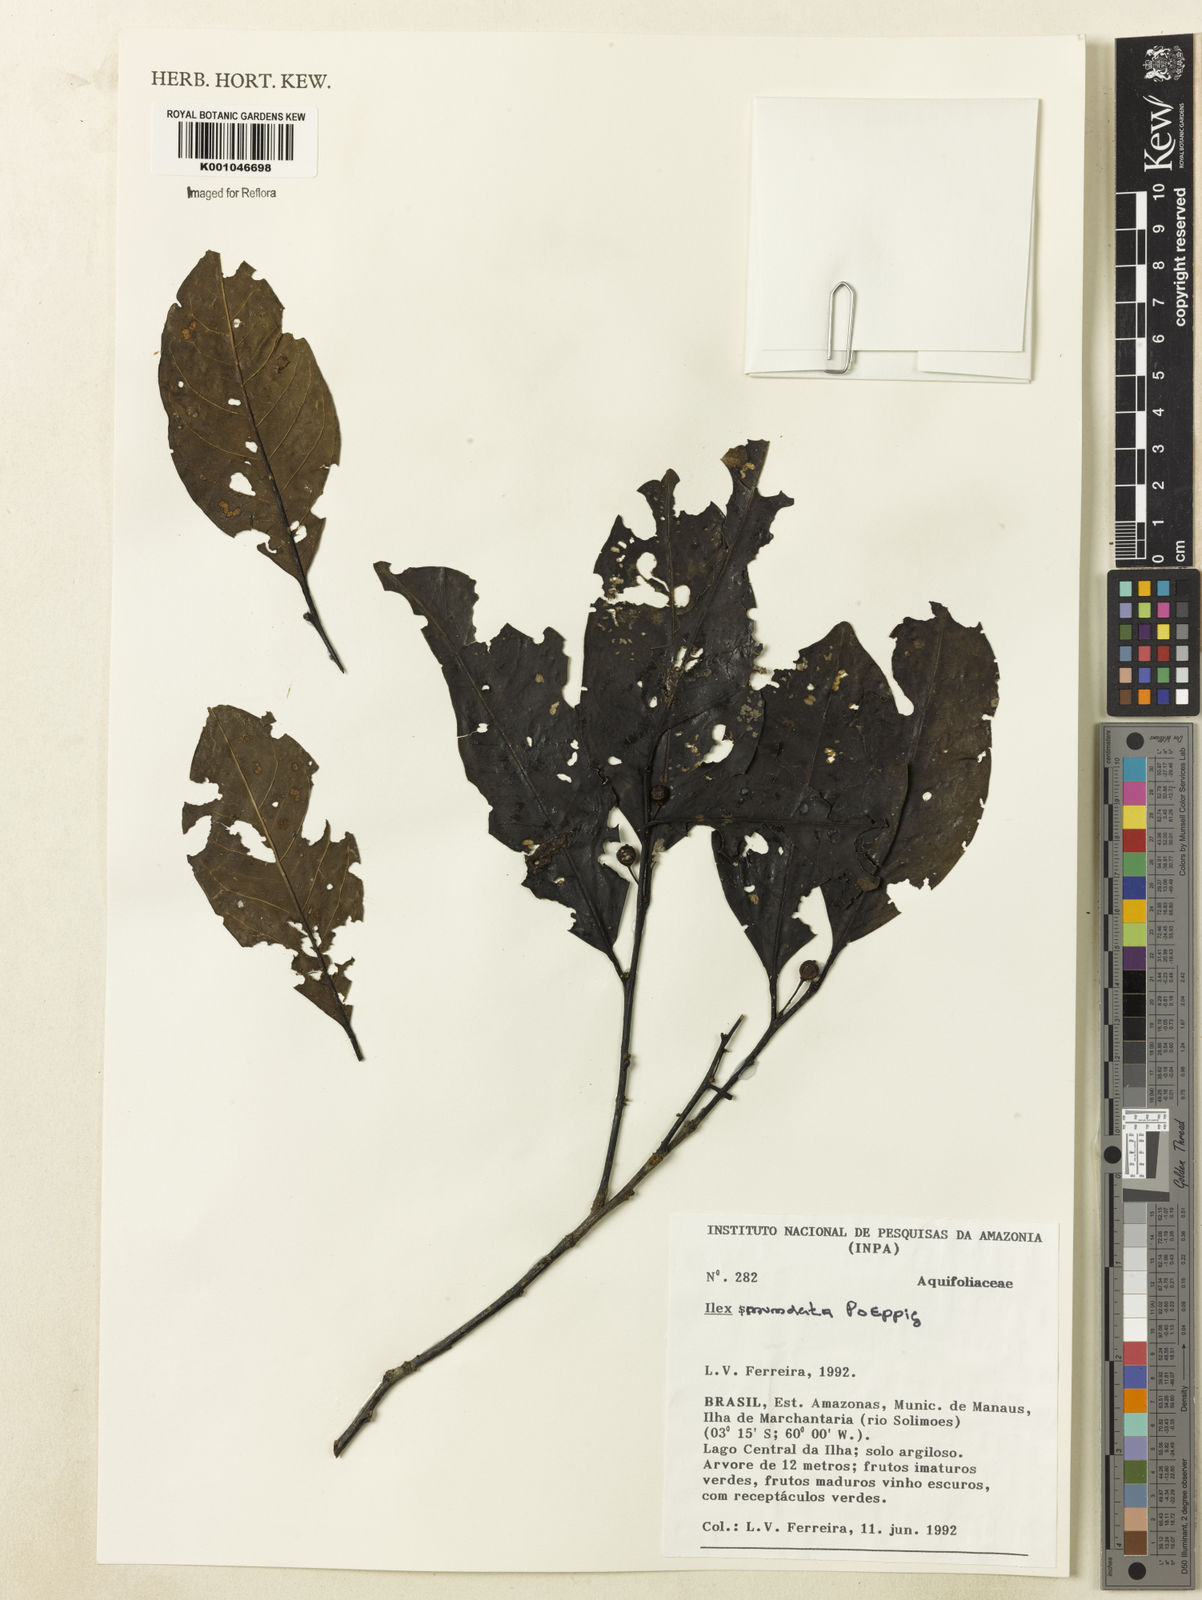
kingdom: Plantae
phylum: Tracheophyta
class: Magnoliopsida
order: Aquifoliales
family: Aquifoliaceae
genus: Ilex
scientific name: Ilex inundata
